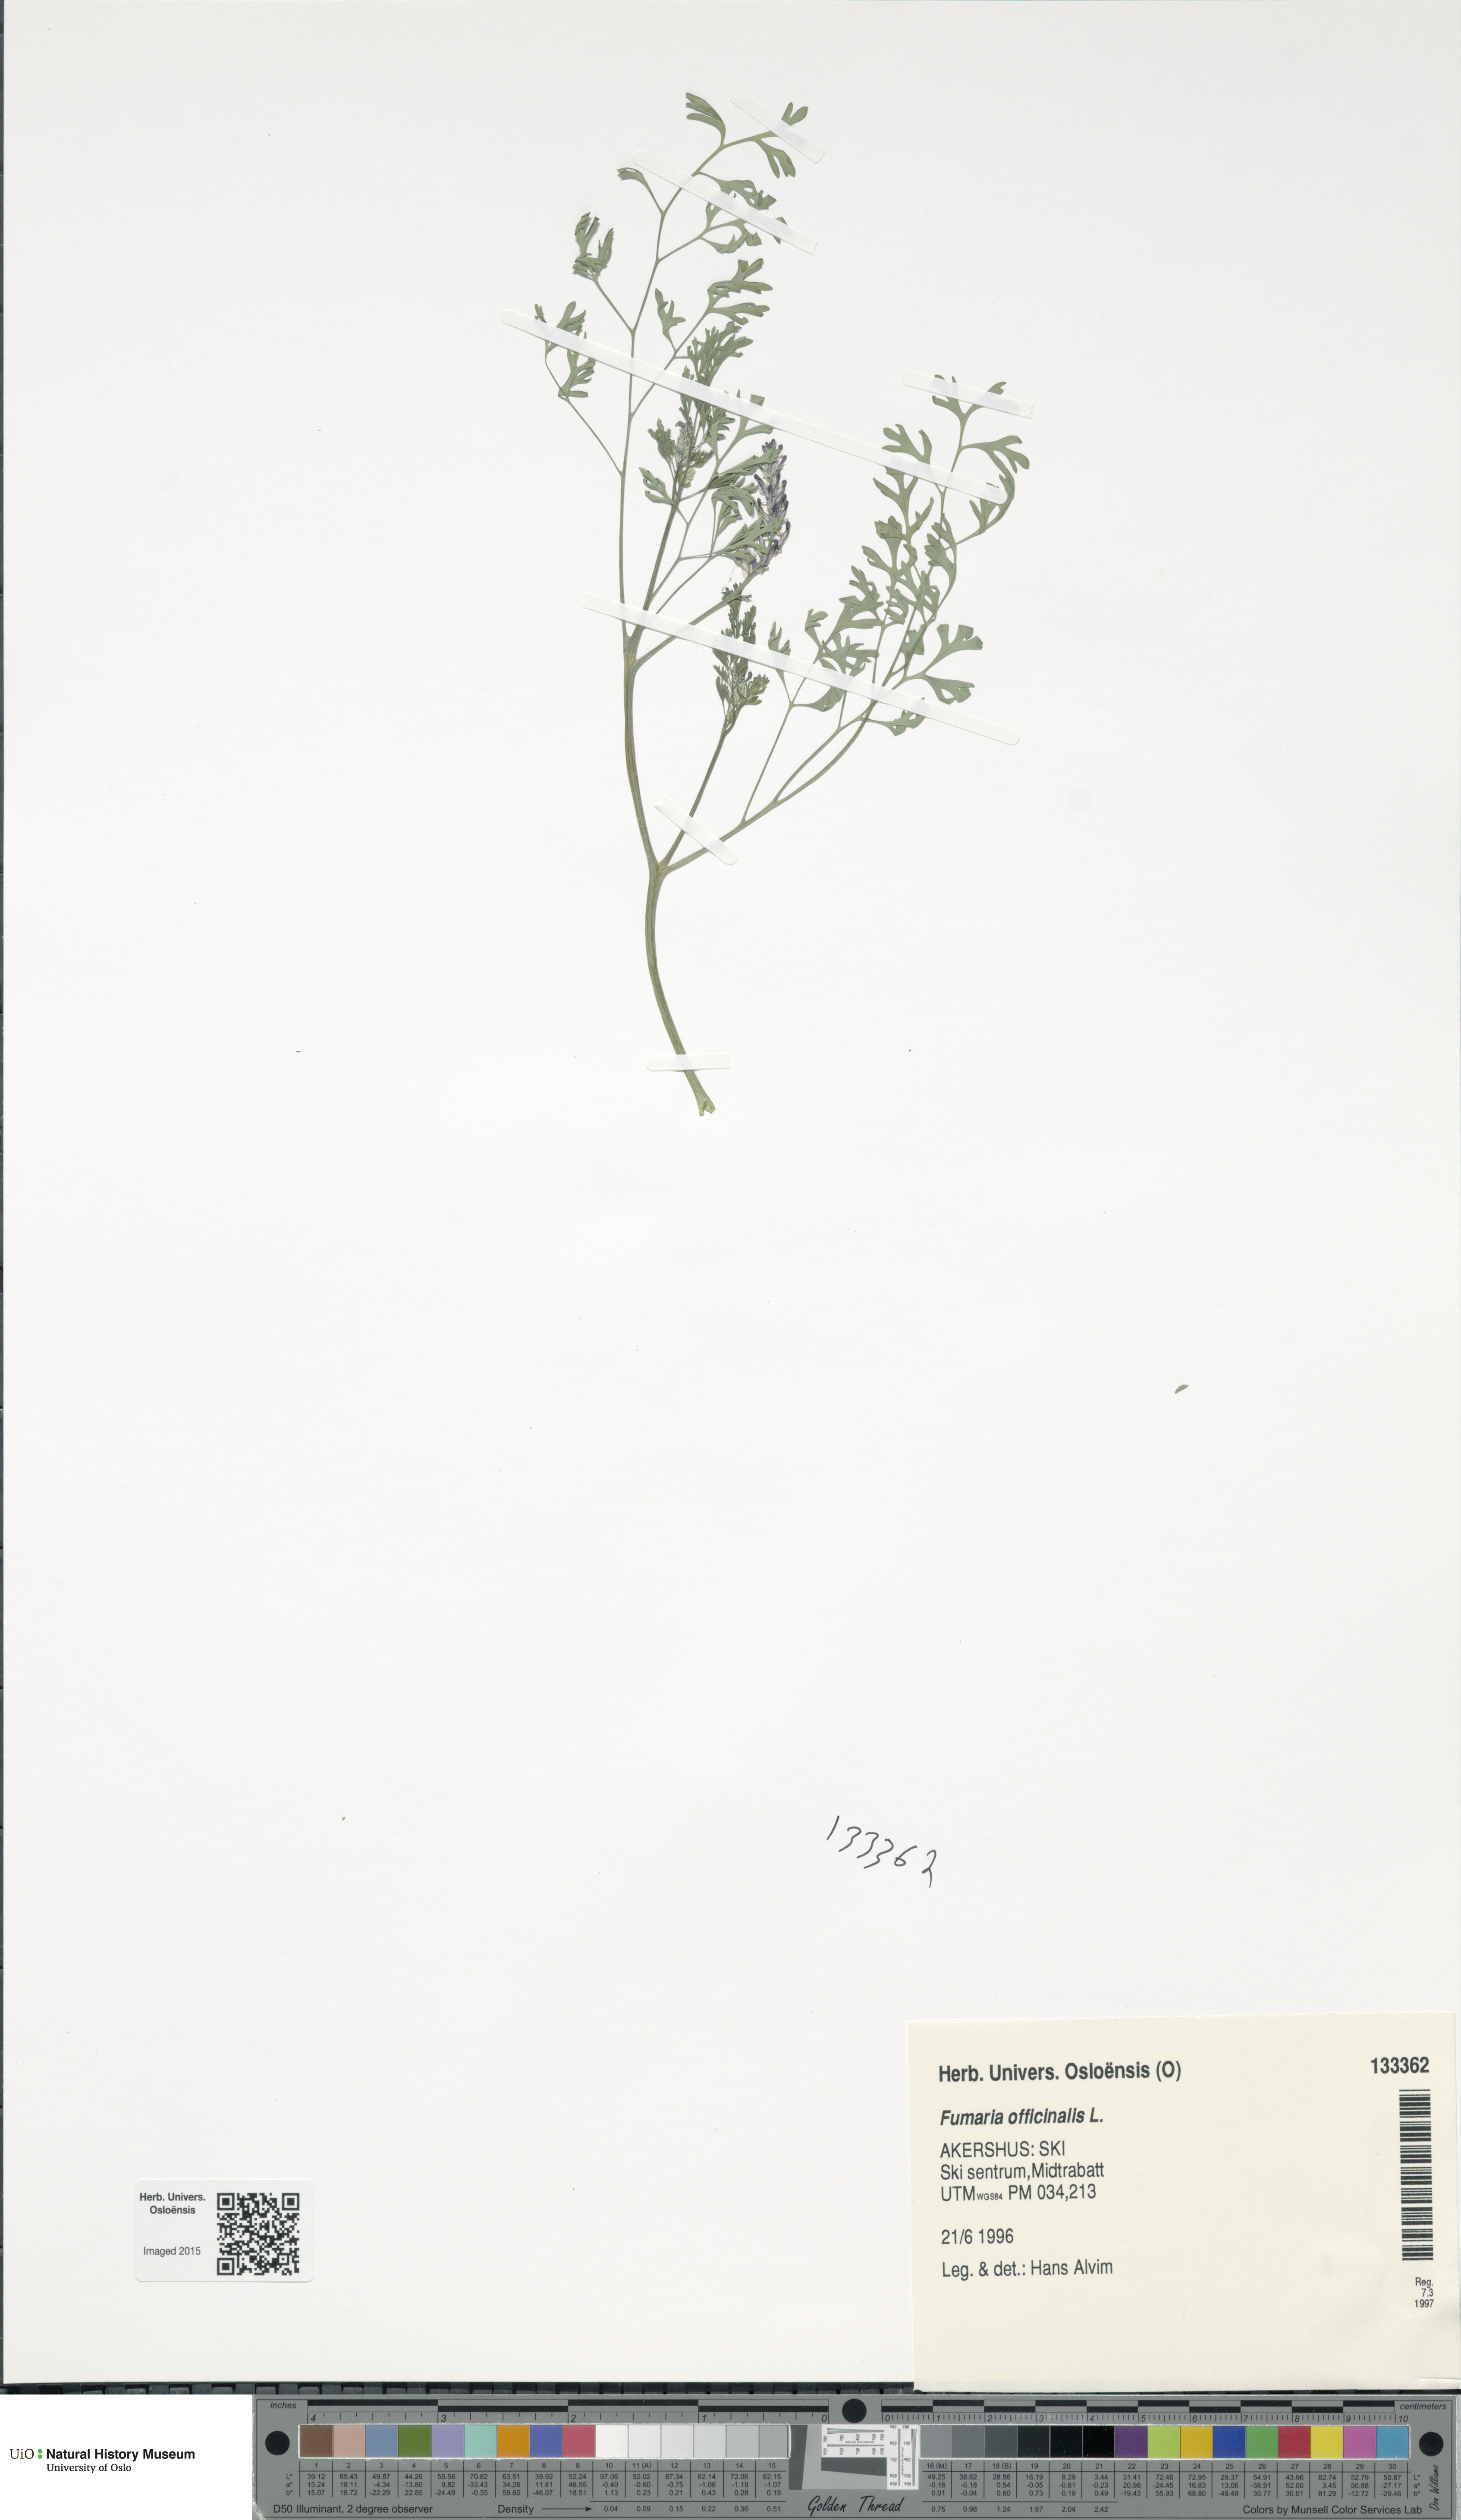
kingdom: Plantae
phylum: Tracheophyta
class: Magnoliopsida
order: Ranunculales
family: Papaveraceae
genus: Fumaria
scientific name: Fumaria officinalis
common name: Common fumitory
